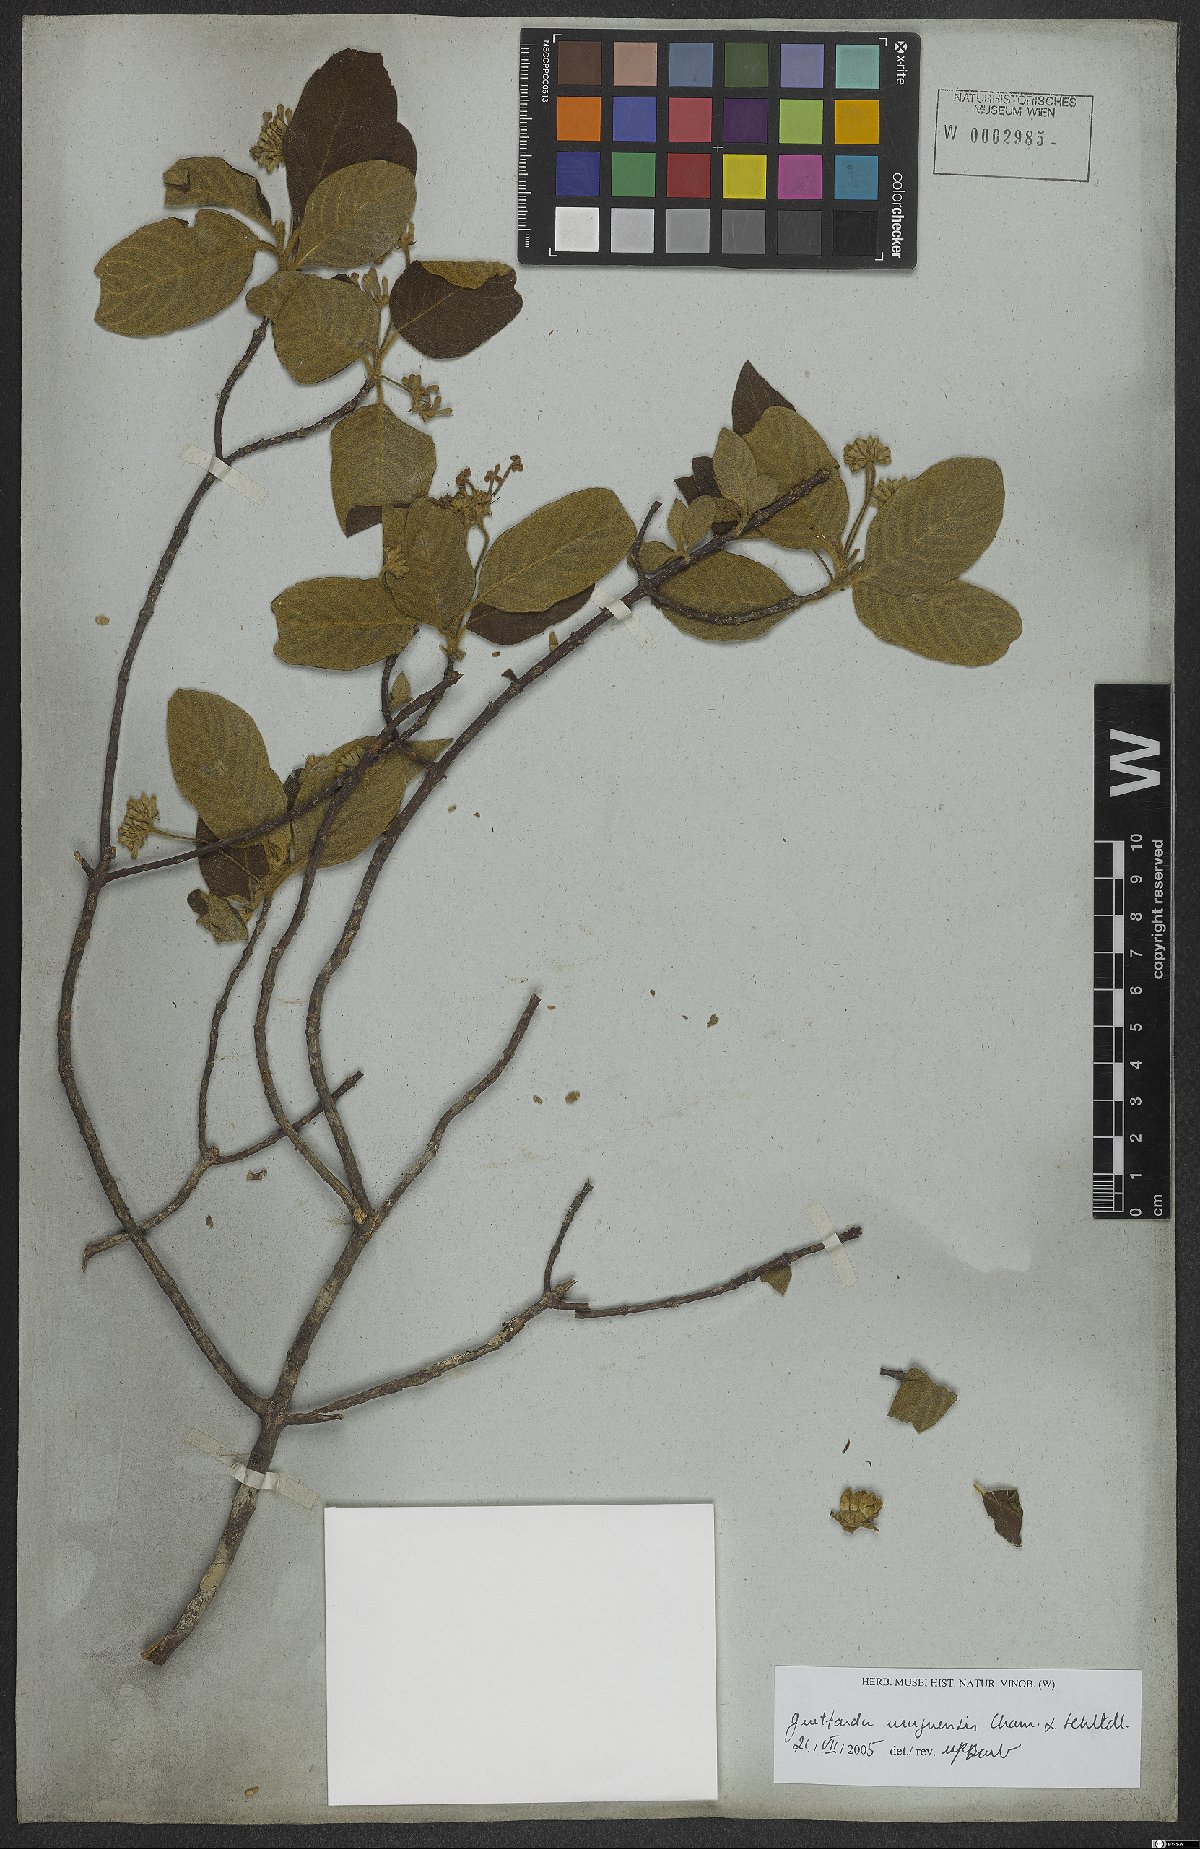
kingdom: Plantae
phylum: Tracheophyta
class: Magnoliopsida
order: Gentianales
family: Rubiaceae
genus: Guettarda
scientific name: Guettarda uruguensis
